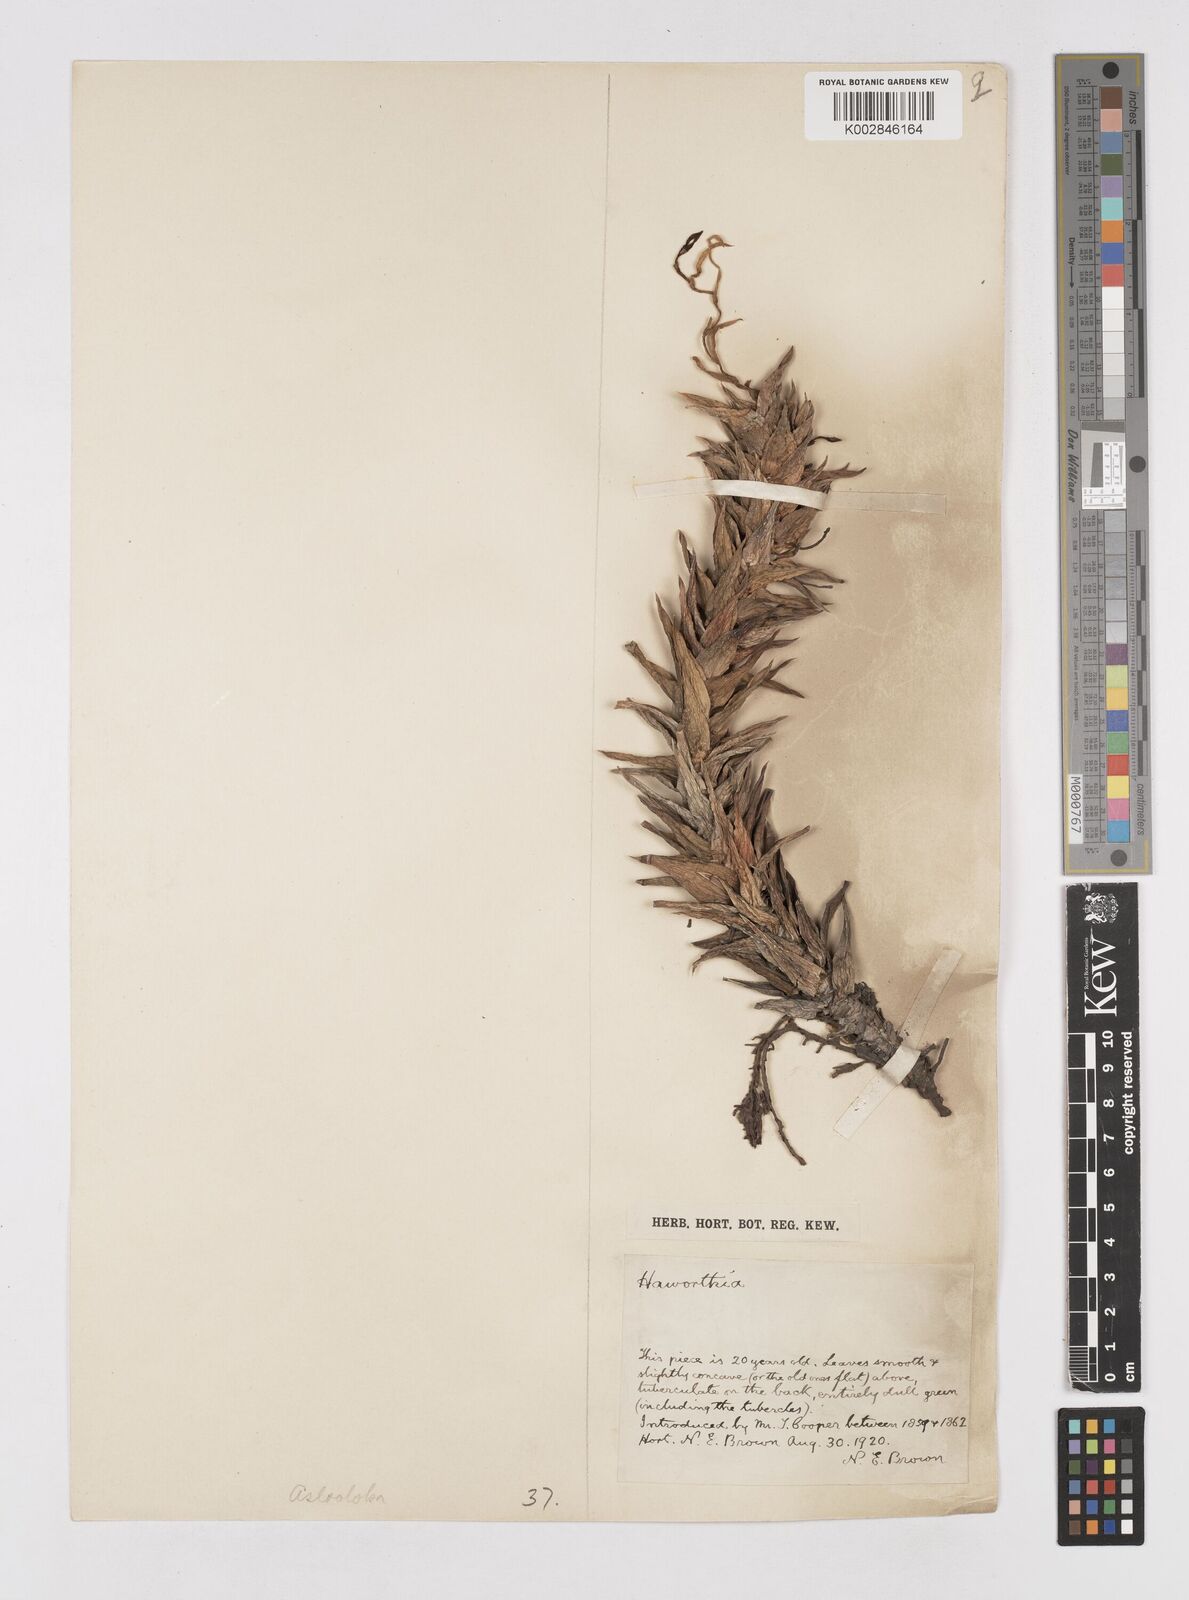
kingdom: Plantae
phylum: Tracheophyta
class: Liliopsida
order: Asparagales
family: Asphodelaceae
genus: Astroloba
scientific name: Astroloba
